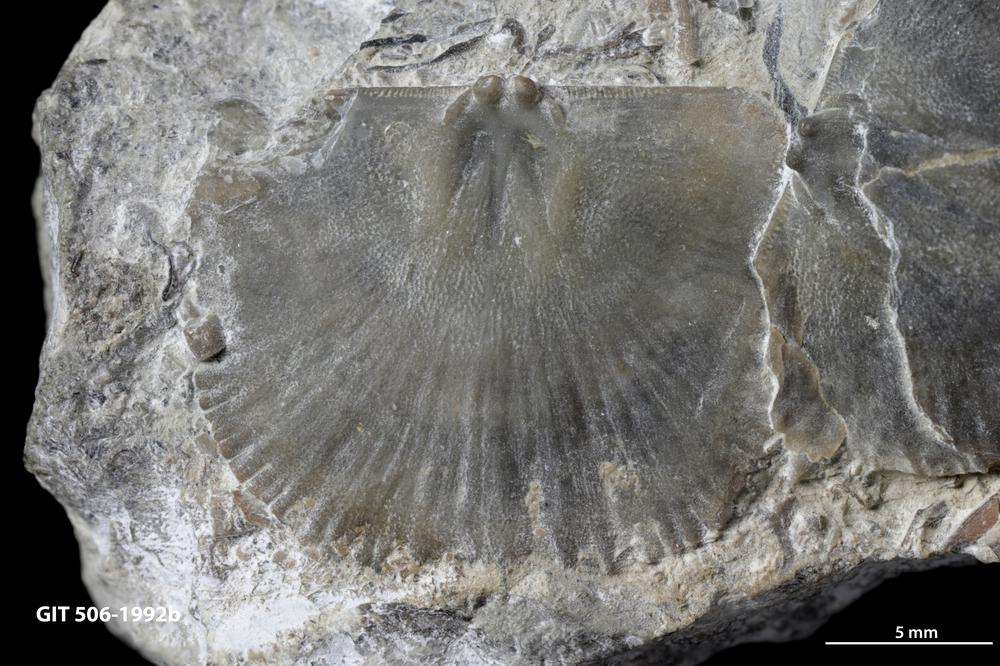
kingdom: Animalia
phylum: Brachiopoda
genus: Janiomya
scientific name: Janiomya Strophomena ornatella
